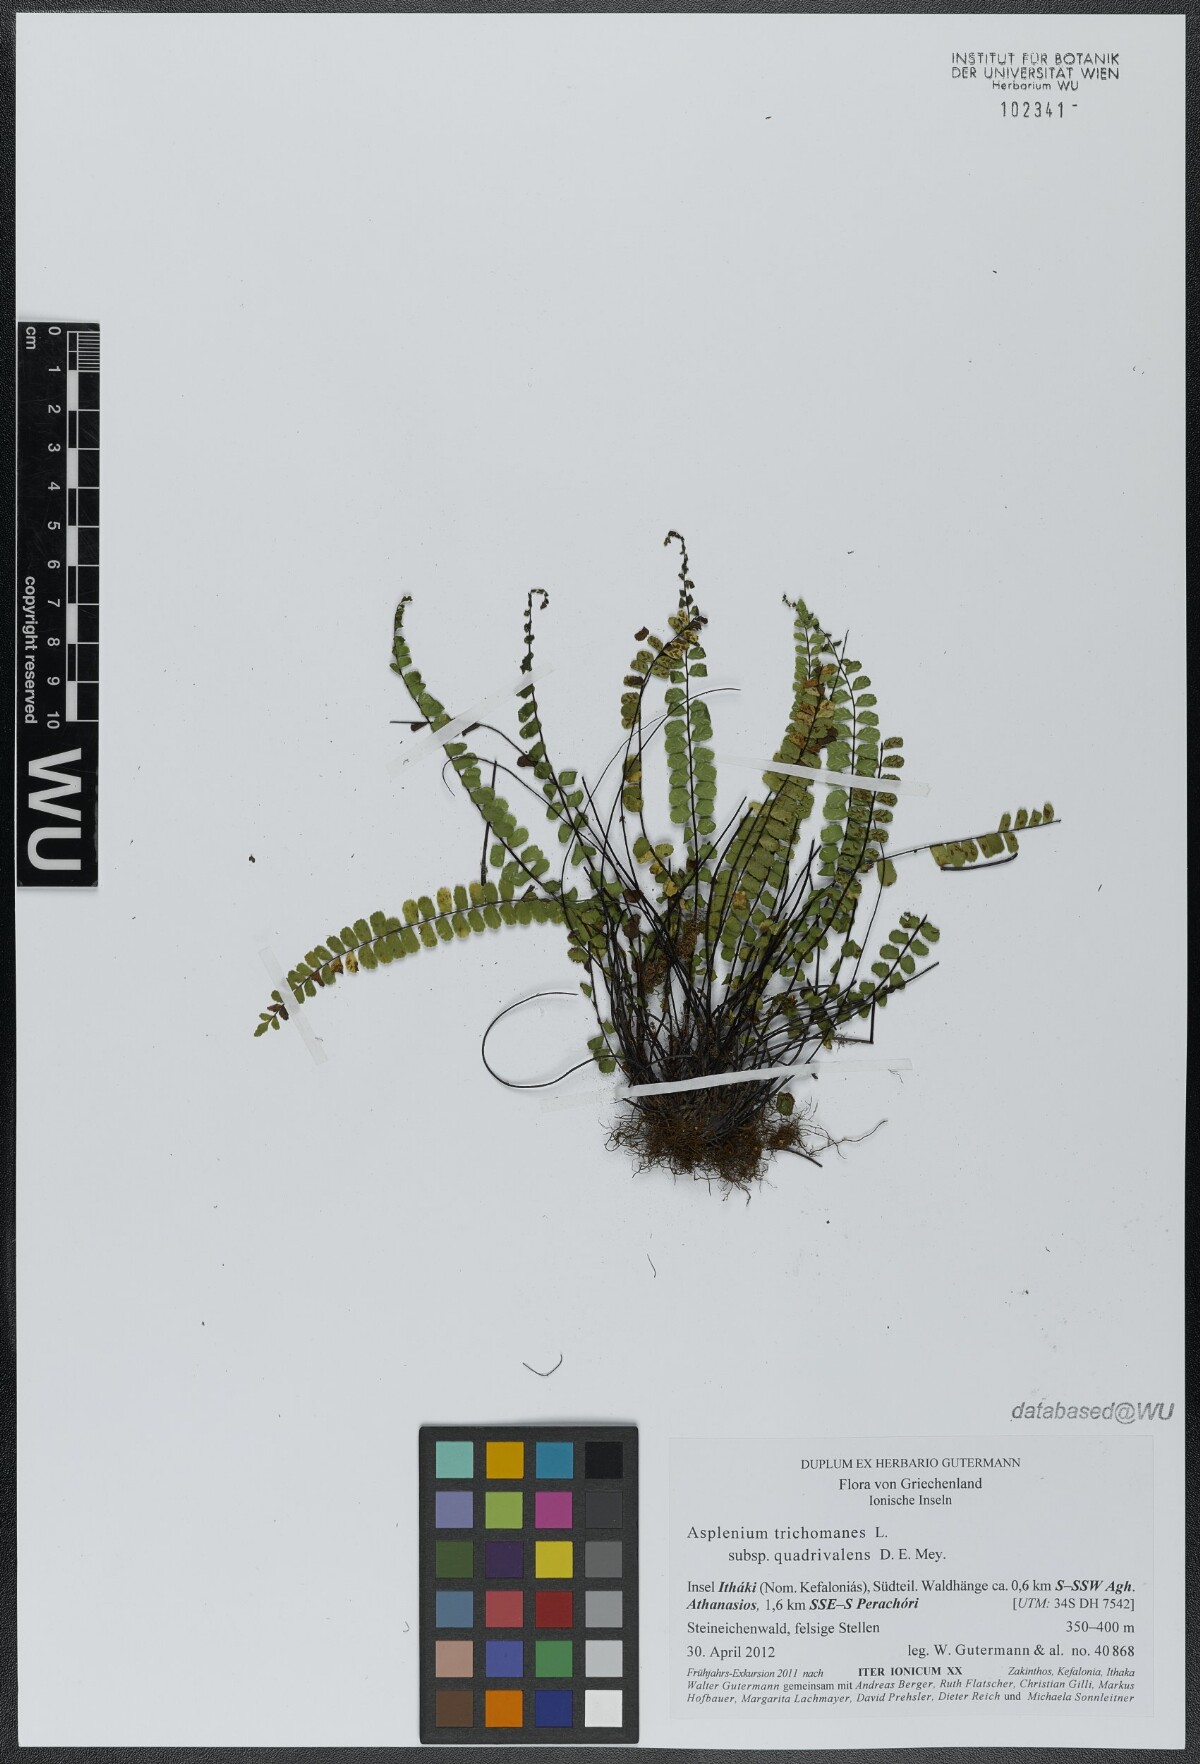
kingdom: Plantae
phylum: Tracheophyta
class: Polypodiopsida
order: Polypodiales
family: Aspleniaceae
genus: Asplenium
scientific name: Asplenium quadrivalens
